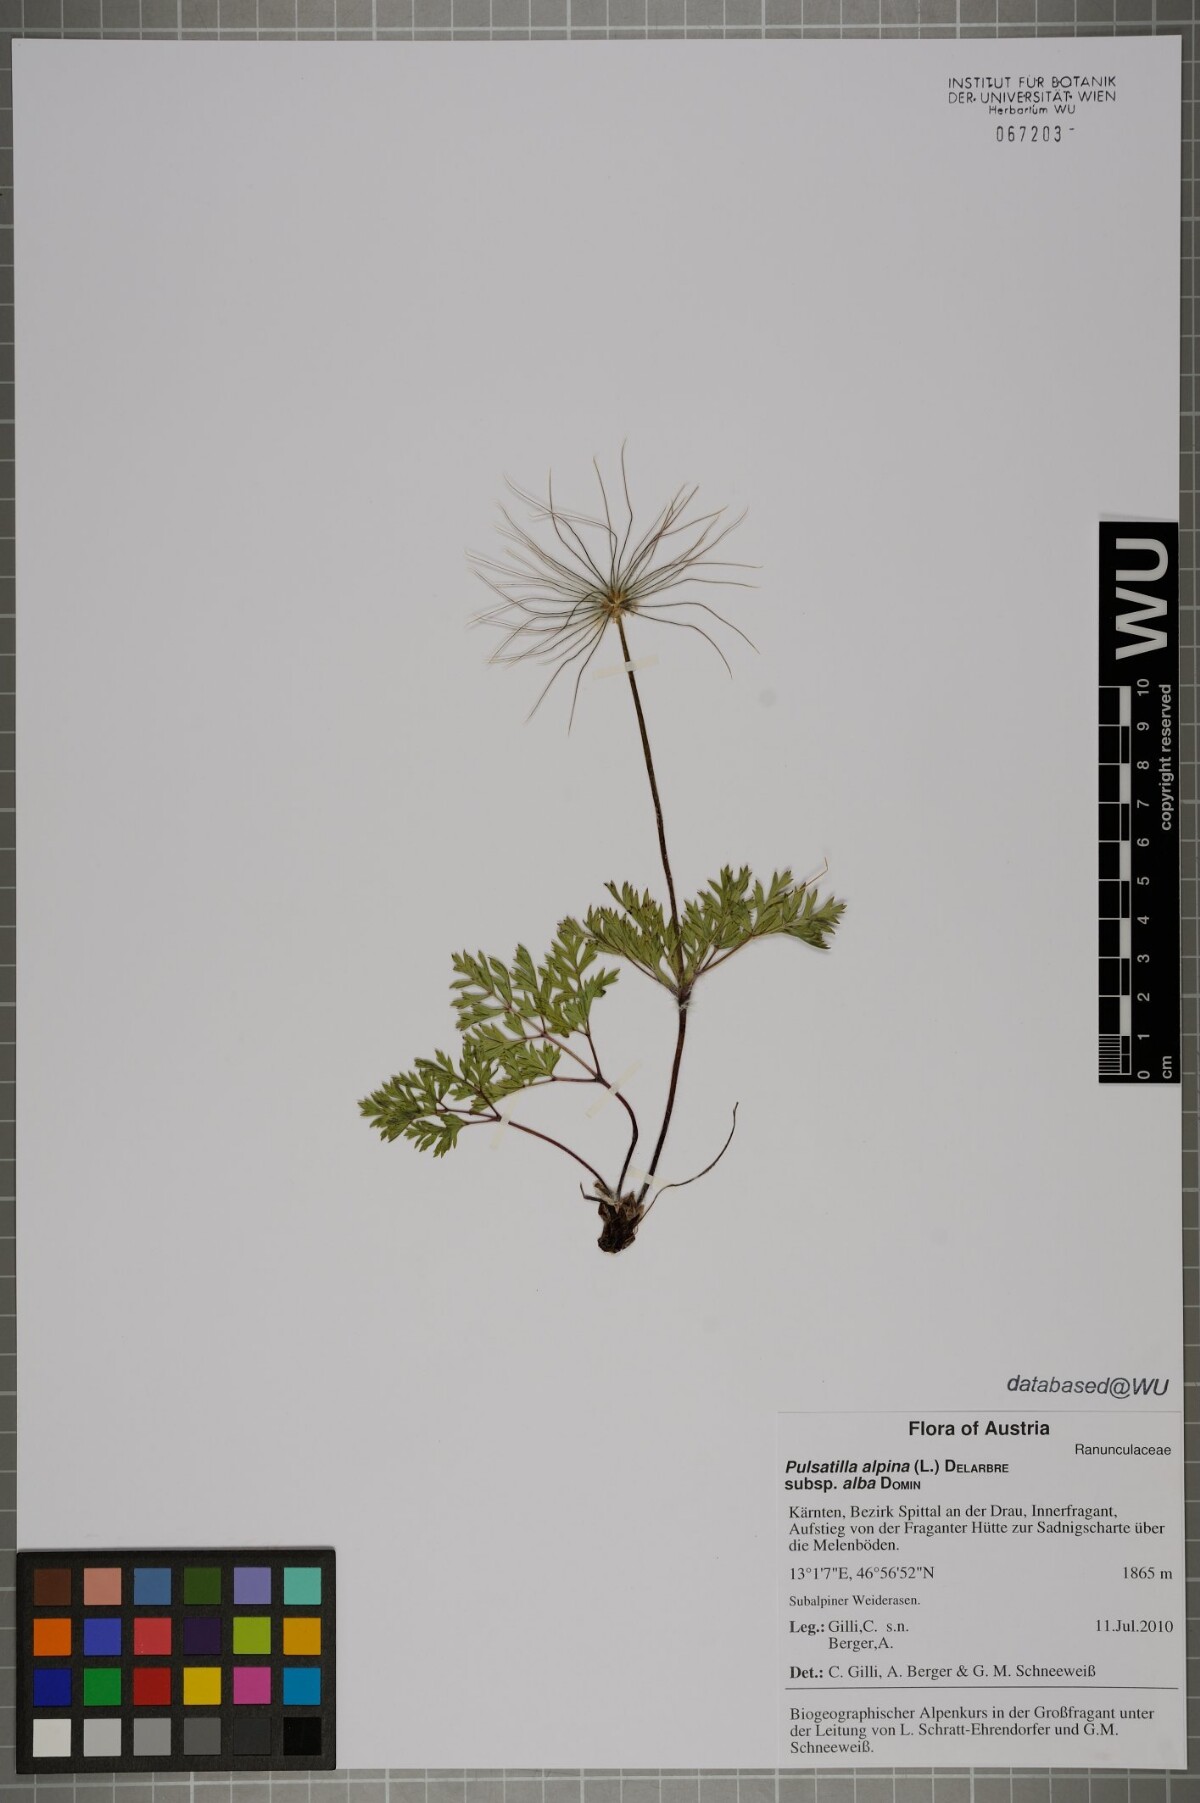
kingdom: Plantae
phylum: Tracheophyta
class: Magnoliopsida
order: Ranunculales
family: Ranunculaceae
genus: Pulsatilla
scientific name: Pulsatilla alpina
